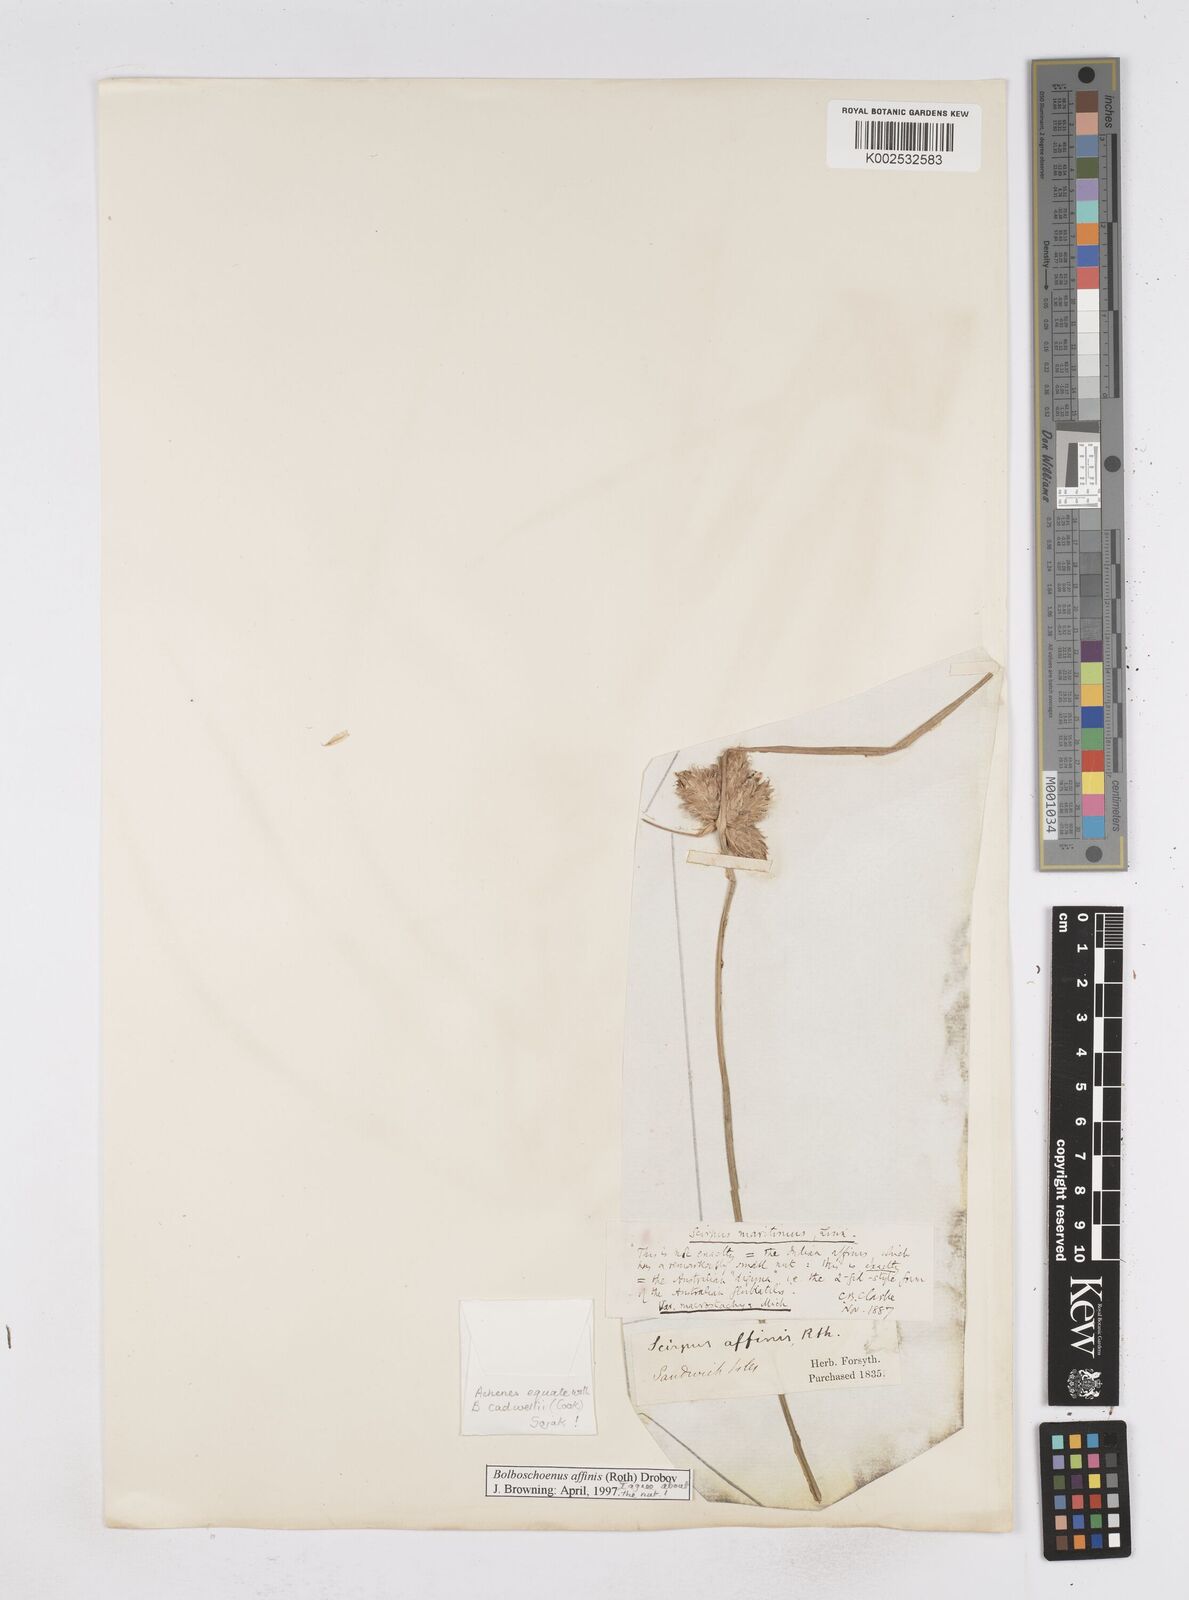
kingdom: Plantae
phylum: Tracheophyta
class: Liliopsida
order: Poales
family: Cyperaceae
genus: Bolboschoenus
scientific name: Bolboschoenus maritimus
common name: Sea club-rush
